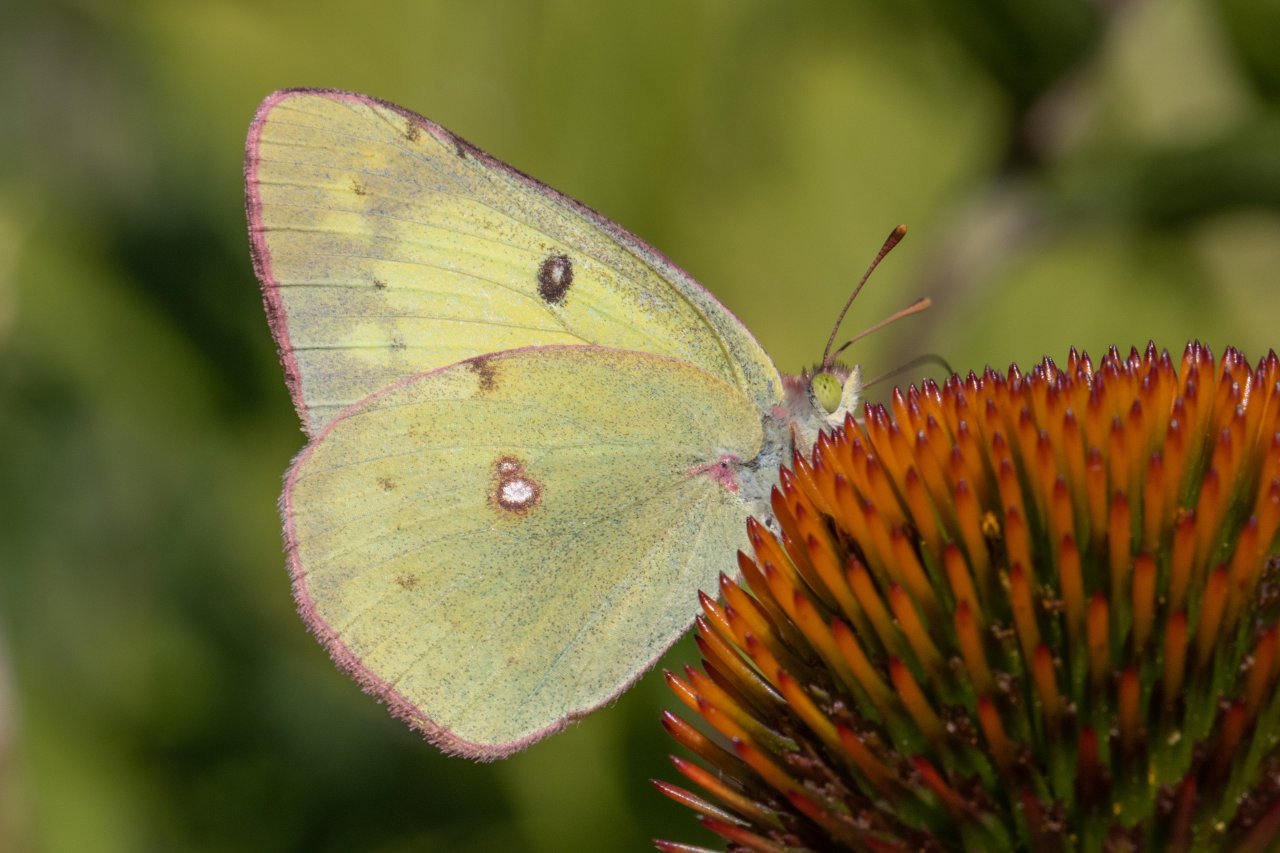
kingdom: Animalia
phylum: Arthropoda
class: Insecta
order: Lepidoptera
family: Pieridae
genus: Colias
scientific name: Colias philodice
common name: Clouded Sulphur
